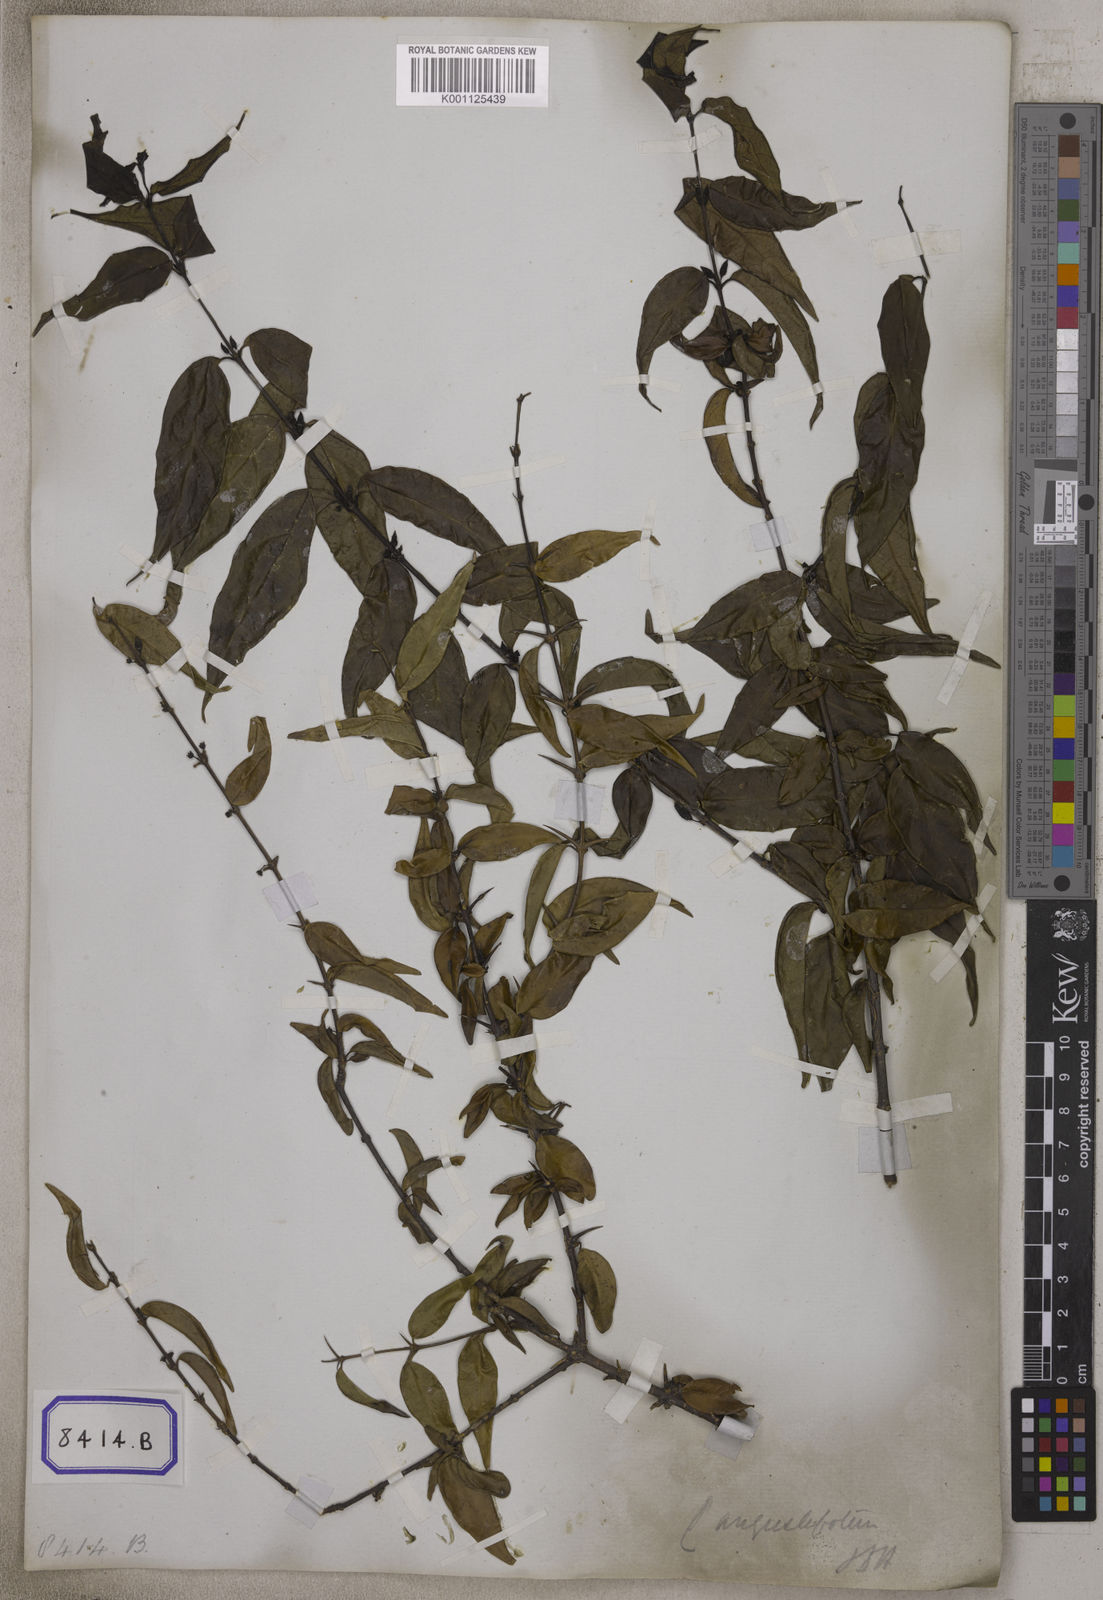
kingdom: Plantae
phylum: Tracheophyta
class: Magnoliopsida
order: Gentianales
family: Rubiaceae
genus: Canthium
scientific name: Canthium angustifolium
